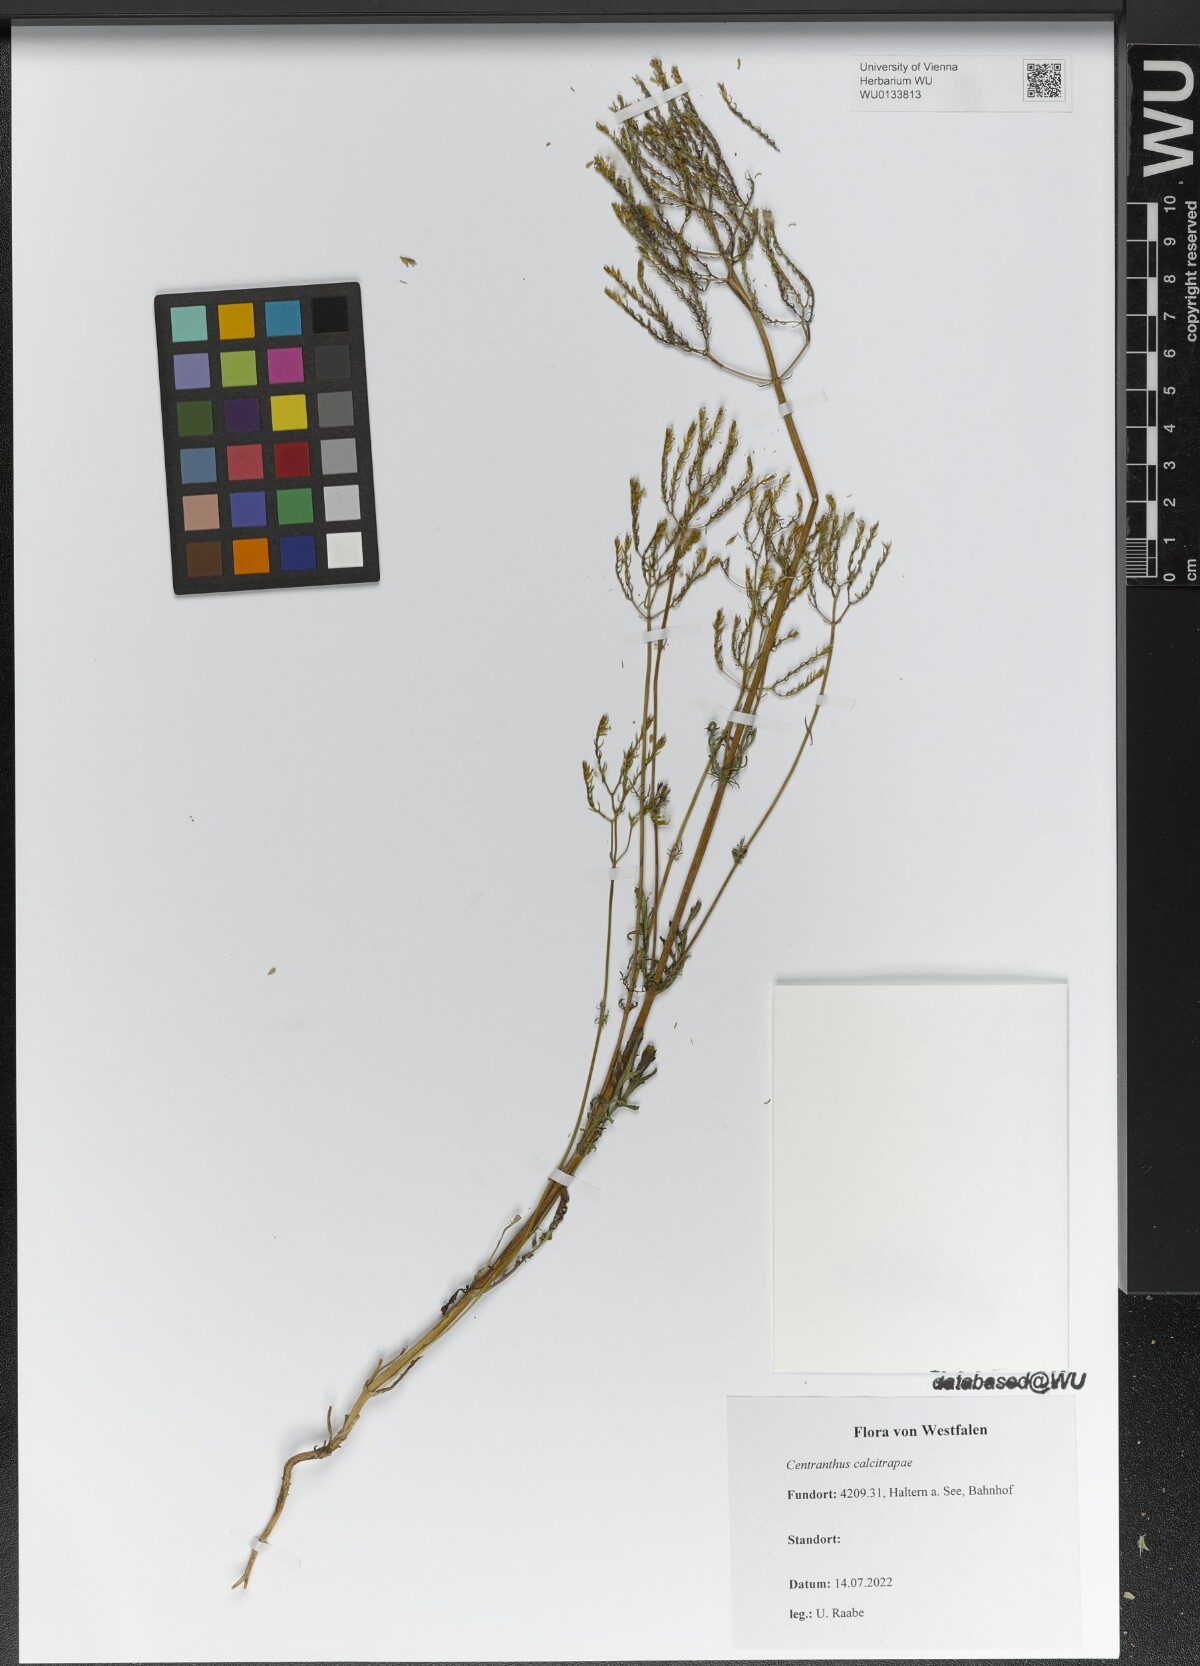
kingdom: Plantae
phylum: Tracheophyta
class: Magnoliopsida
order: Dipsacales
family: Caprifoliaceae
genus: Centranthus
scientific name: Centranthus calcitrapae
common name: Annual valerian
